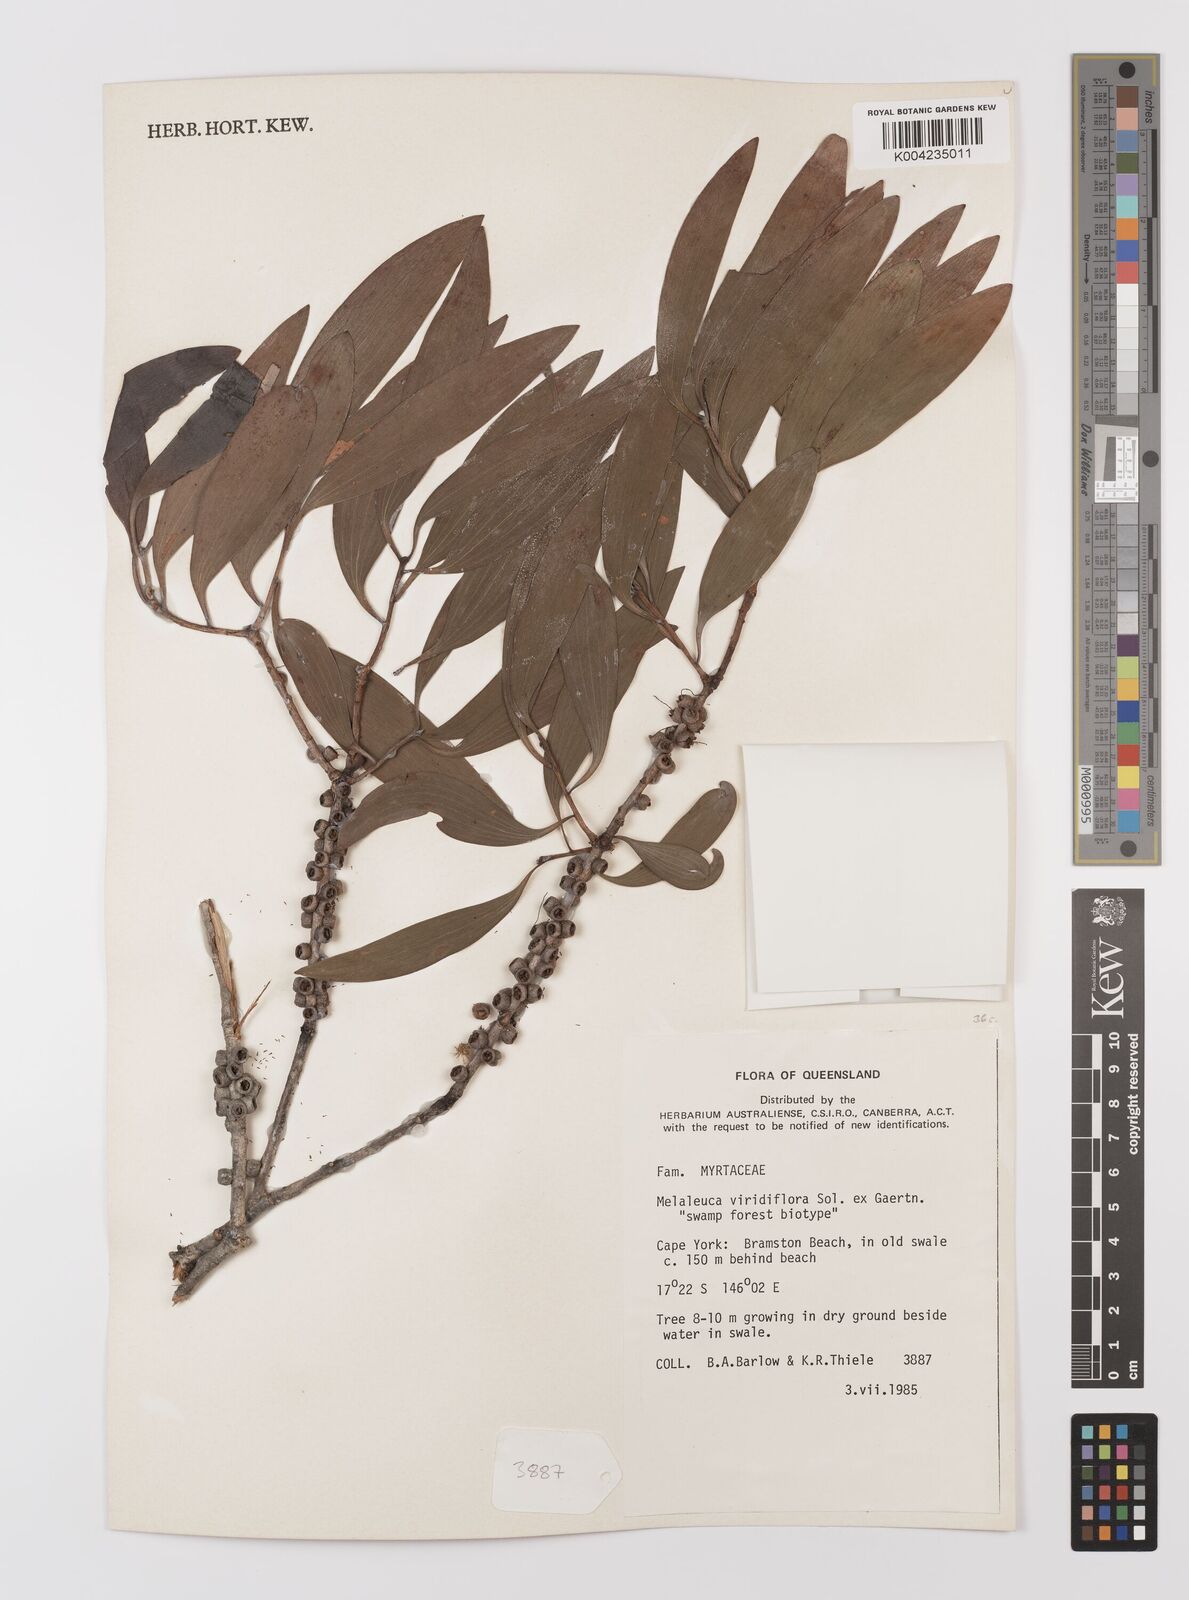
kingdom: Plantae
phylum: Tracheophyta
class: Magnoliopsida
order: Myrtales
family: Myrtaceae
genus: Melaleuca
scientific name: Melaleuca viridiflora
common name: Brown-leaved paperbark
